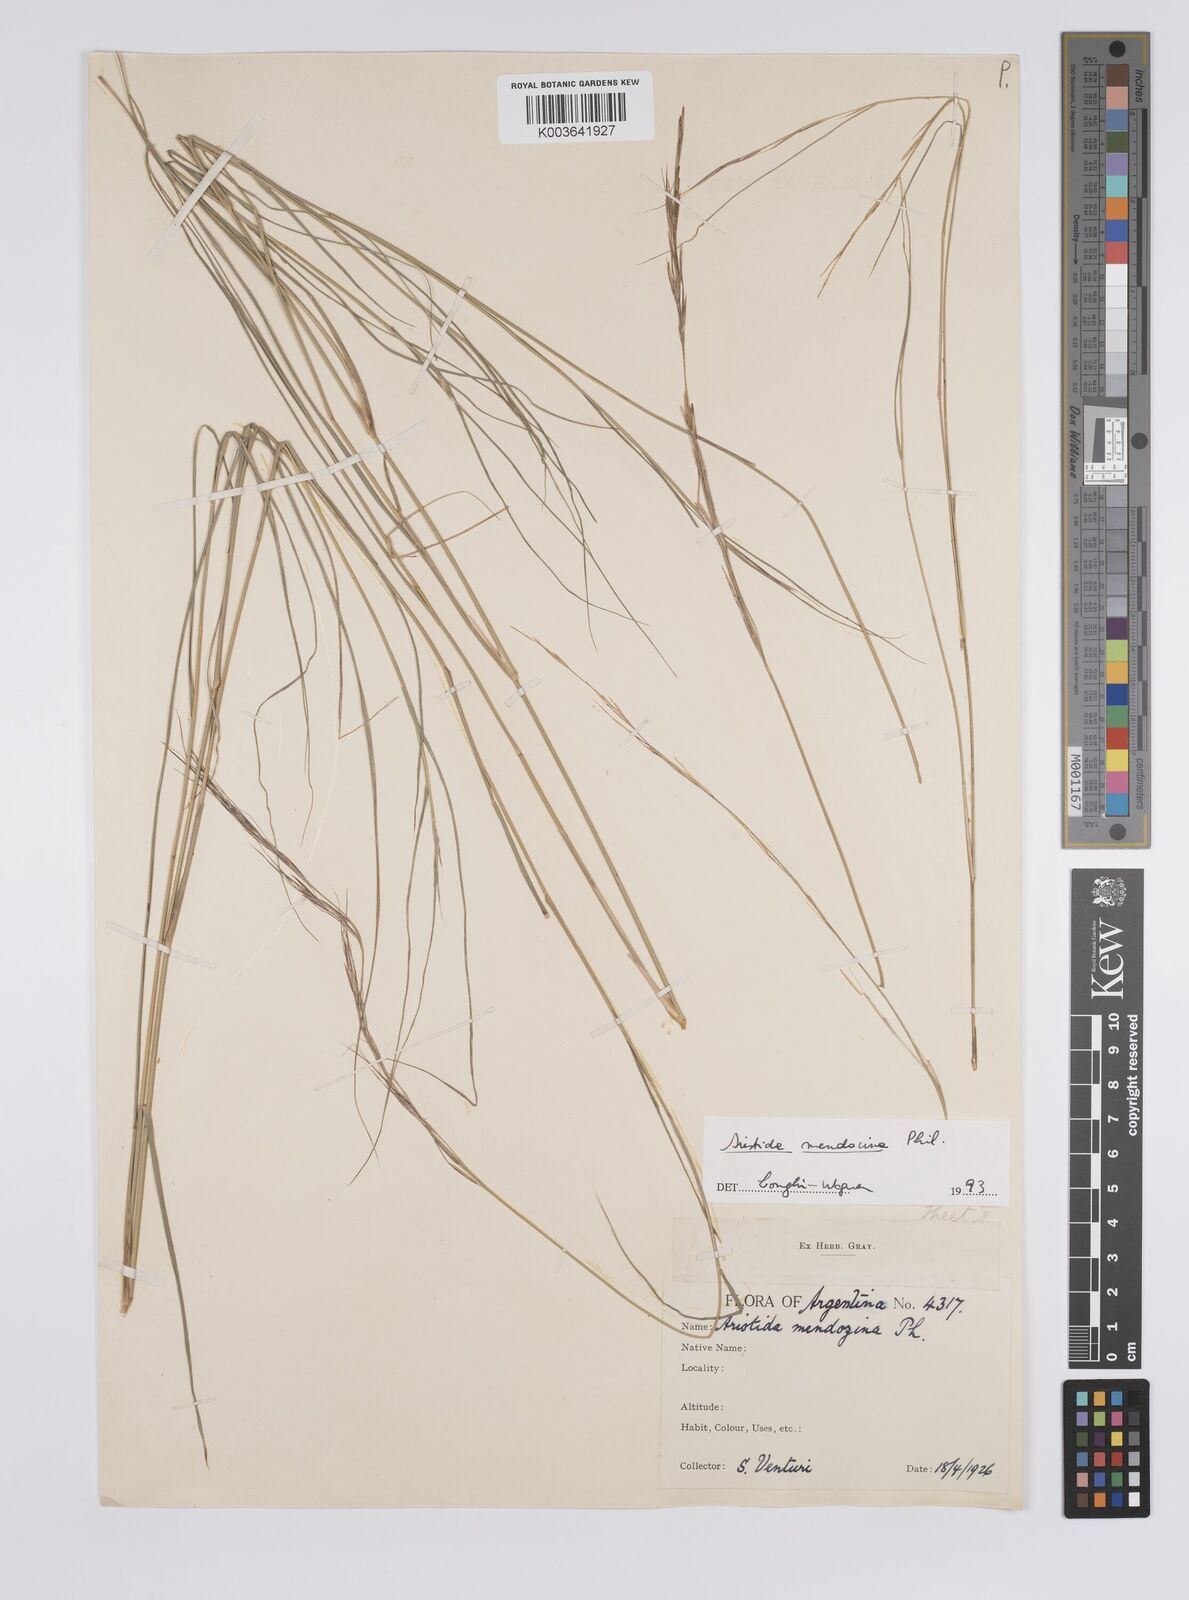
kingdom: Plantae
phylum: Tracheophyta
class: Liliopsida
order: Poales
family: Poaceae
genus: Aristida
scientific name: Aristida mendocina
